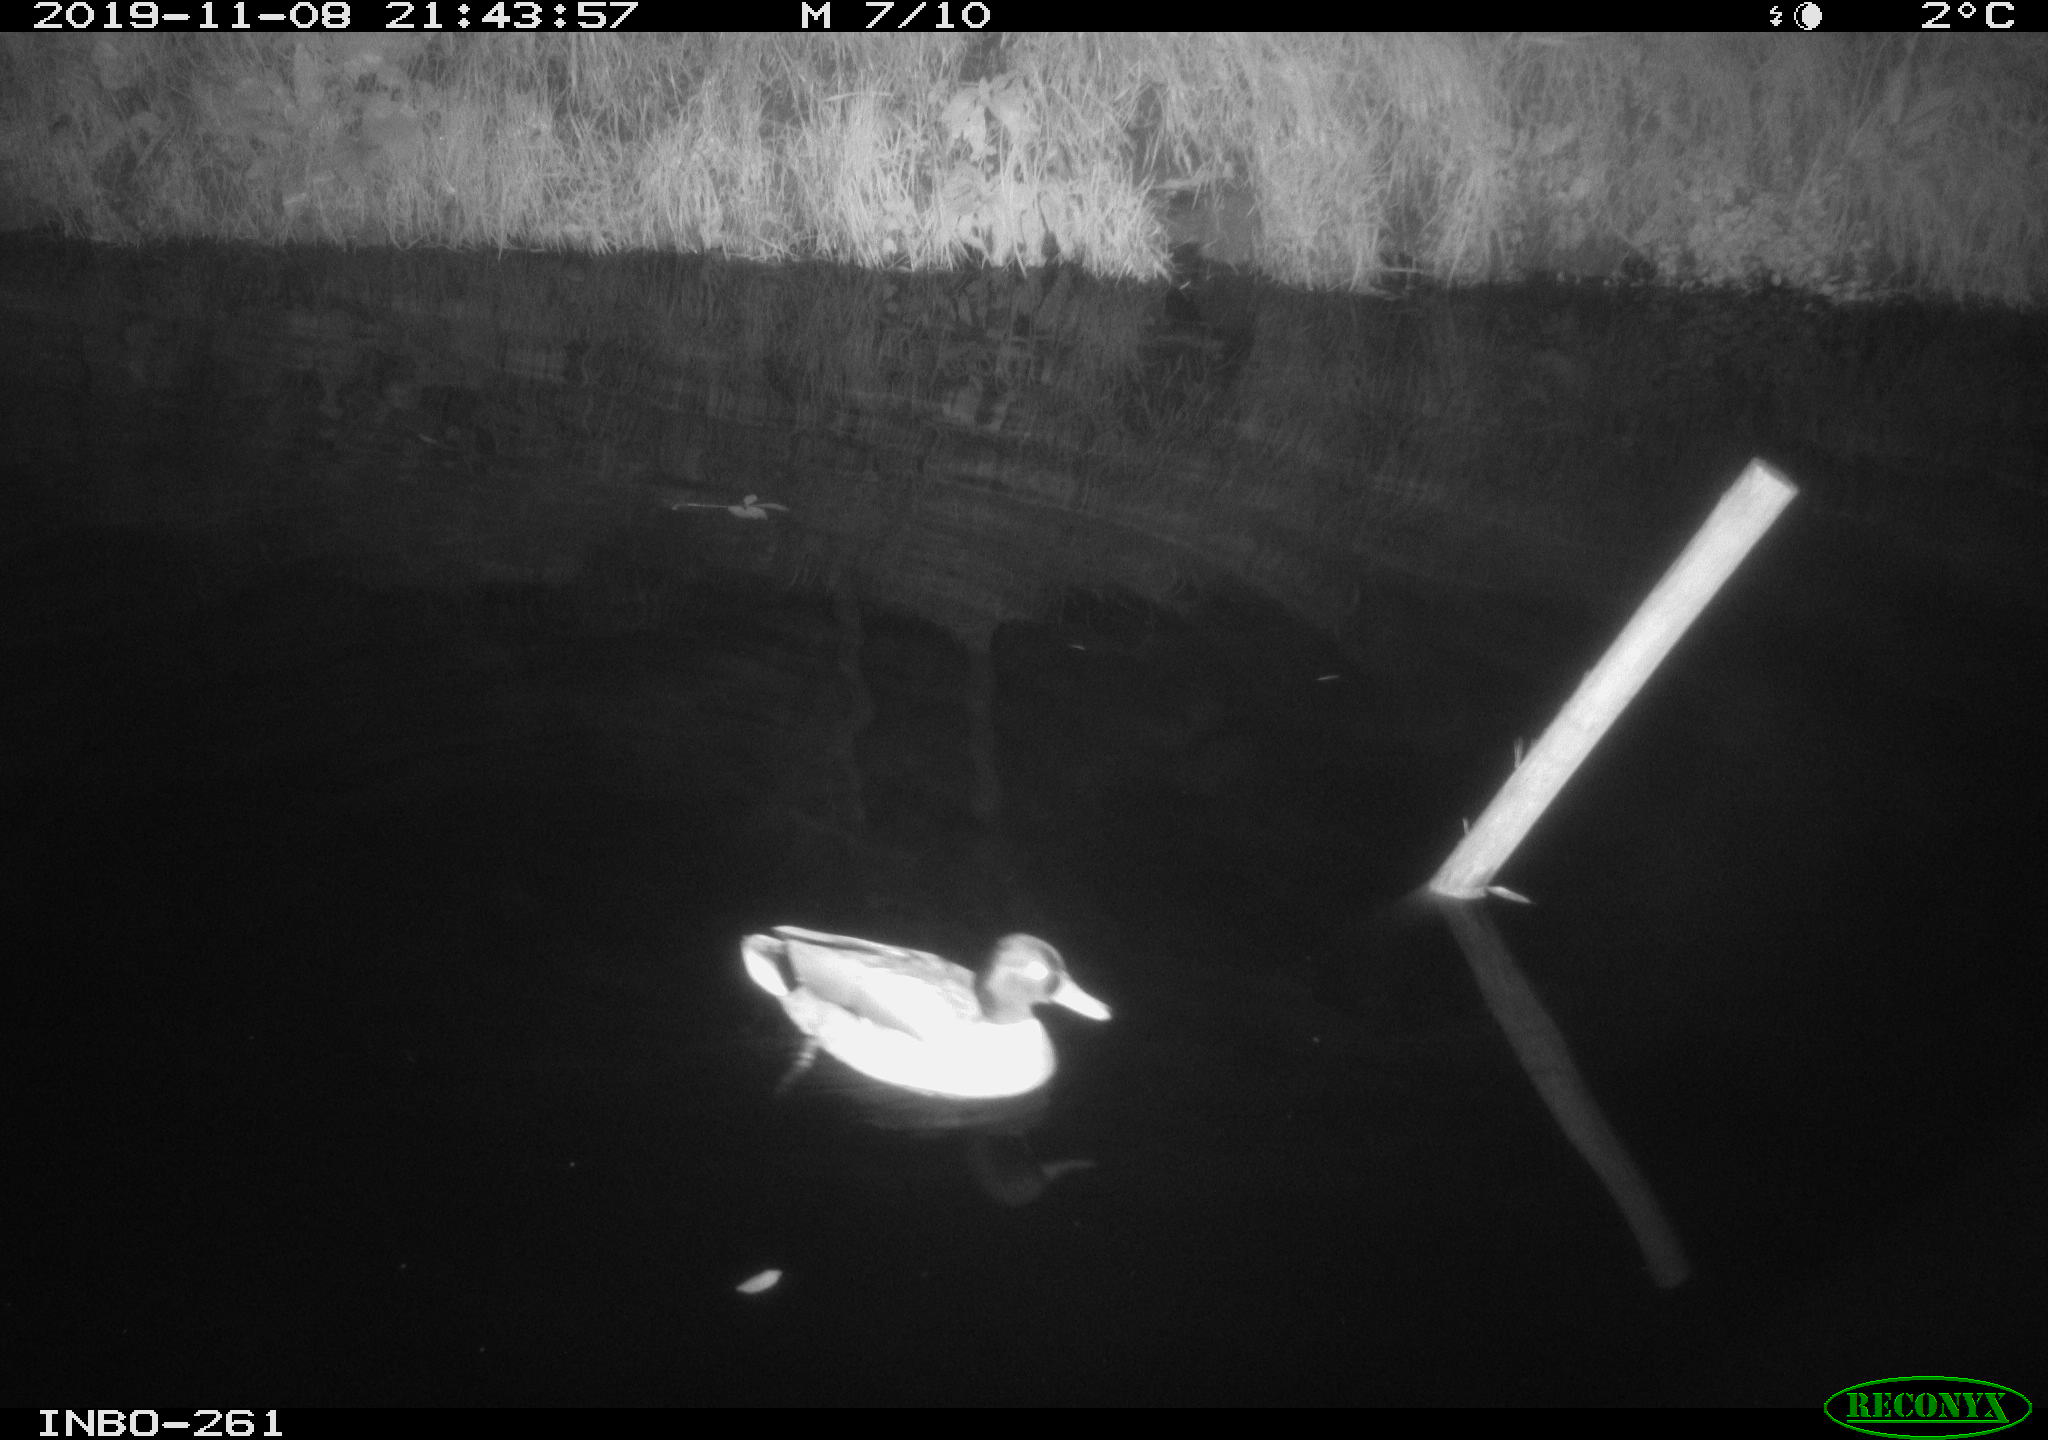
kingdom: Animalia
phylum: Chordata
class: Aves
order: Anseriformes
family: Anatidae
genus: Anas
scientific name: Anas platyrhynchos
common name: Mallard
